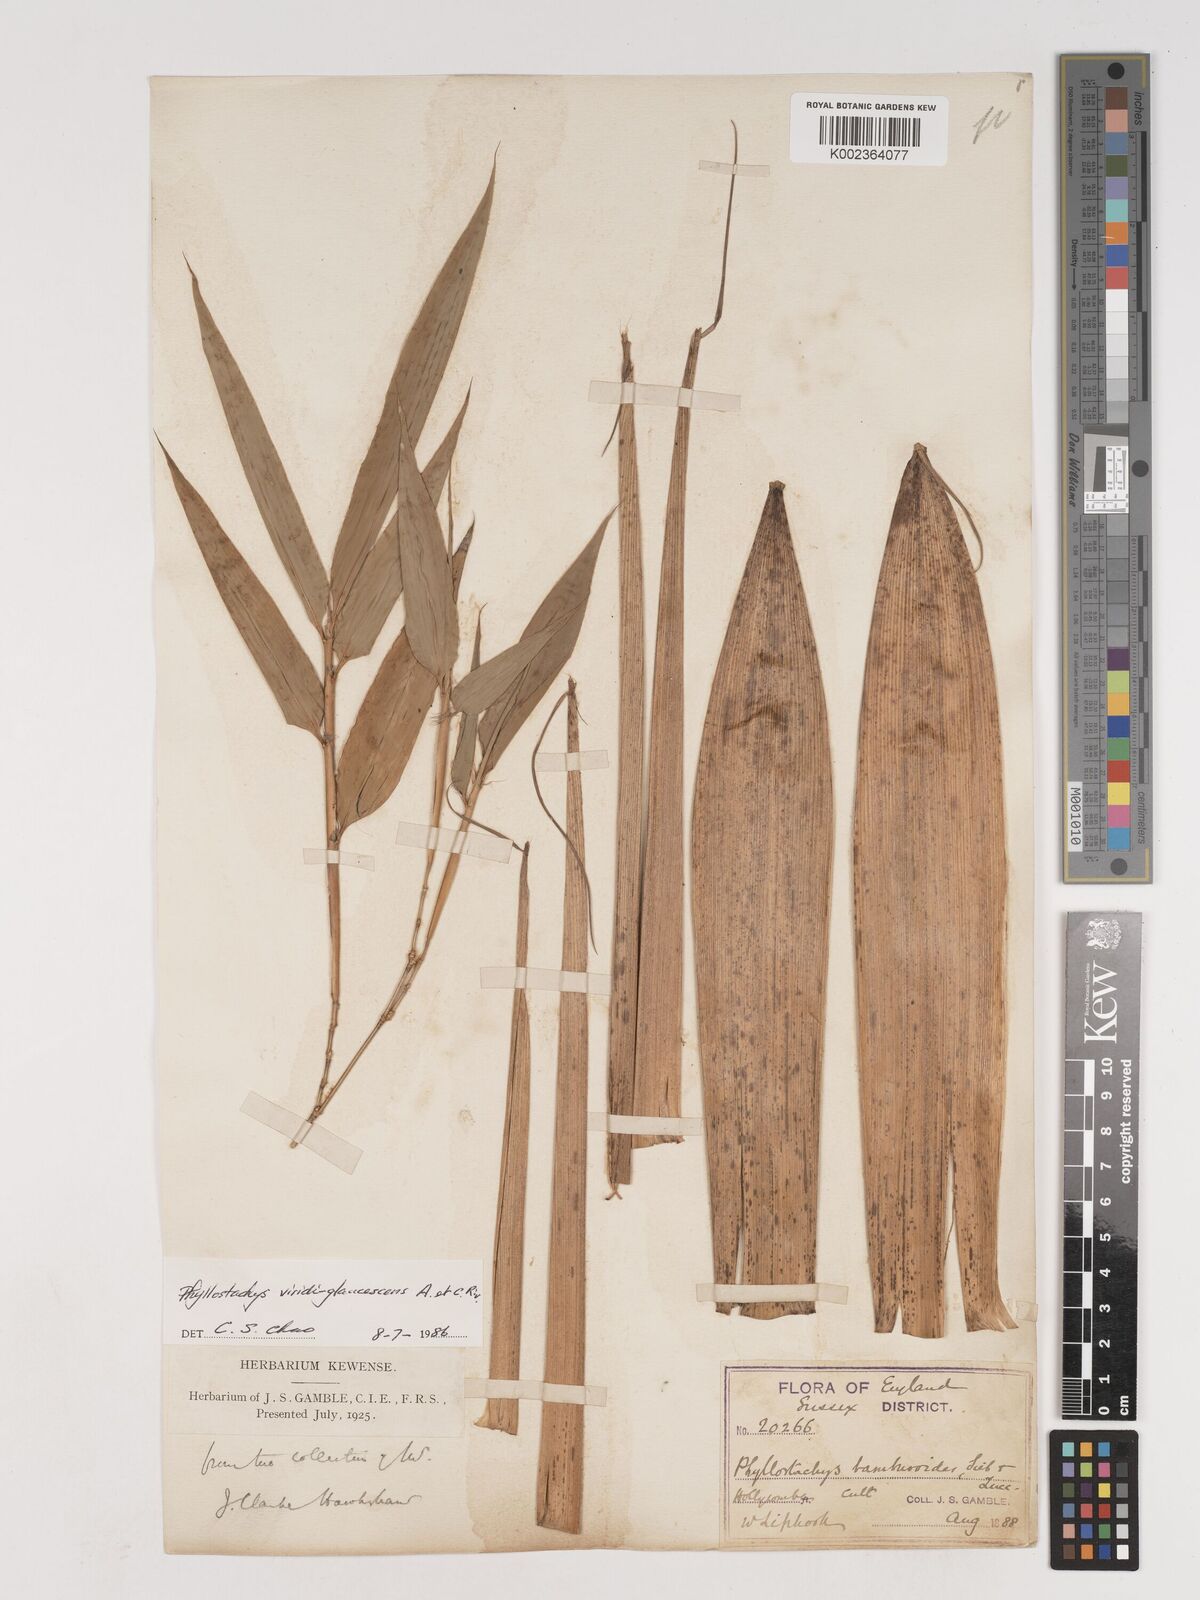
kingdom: Plantae
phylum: Tracheophyta
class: Liliopsida
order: Poales
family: Poaceae
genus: Phyllostachys
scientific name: Phyllostachys viridiglaucescens
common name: Greenwax golden bamboo
